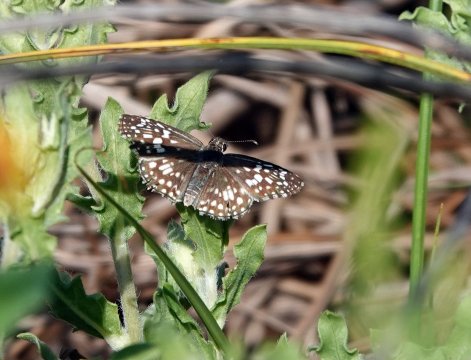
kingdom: Animalia
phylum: Arthropoda
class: Insecta
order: Lepidoptera
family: Hesperiidae
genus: Pyrgus
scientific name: Pyrgus oileus
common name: Tropical Checkered-Skipper
